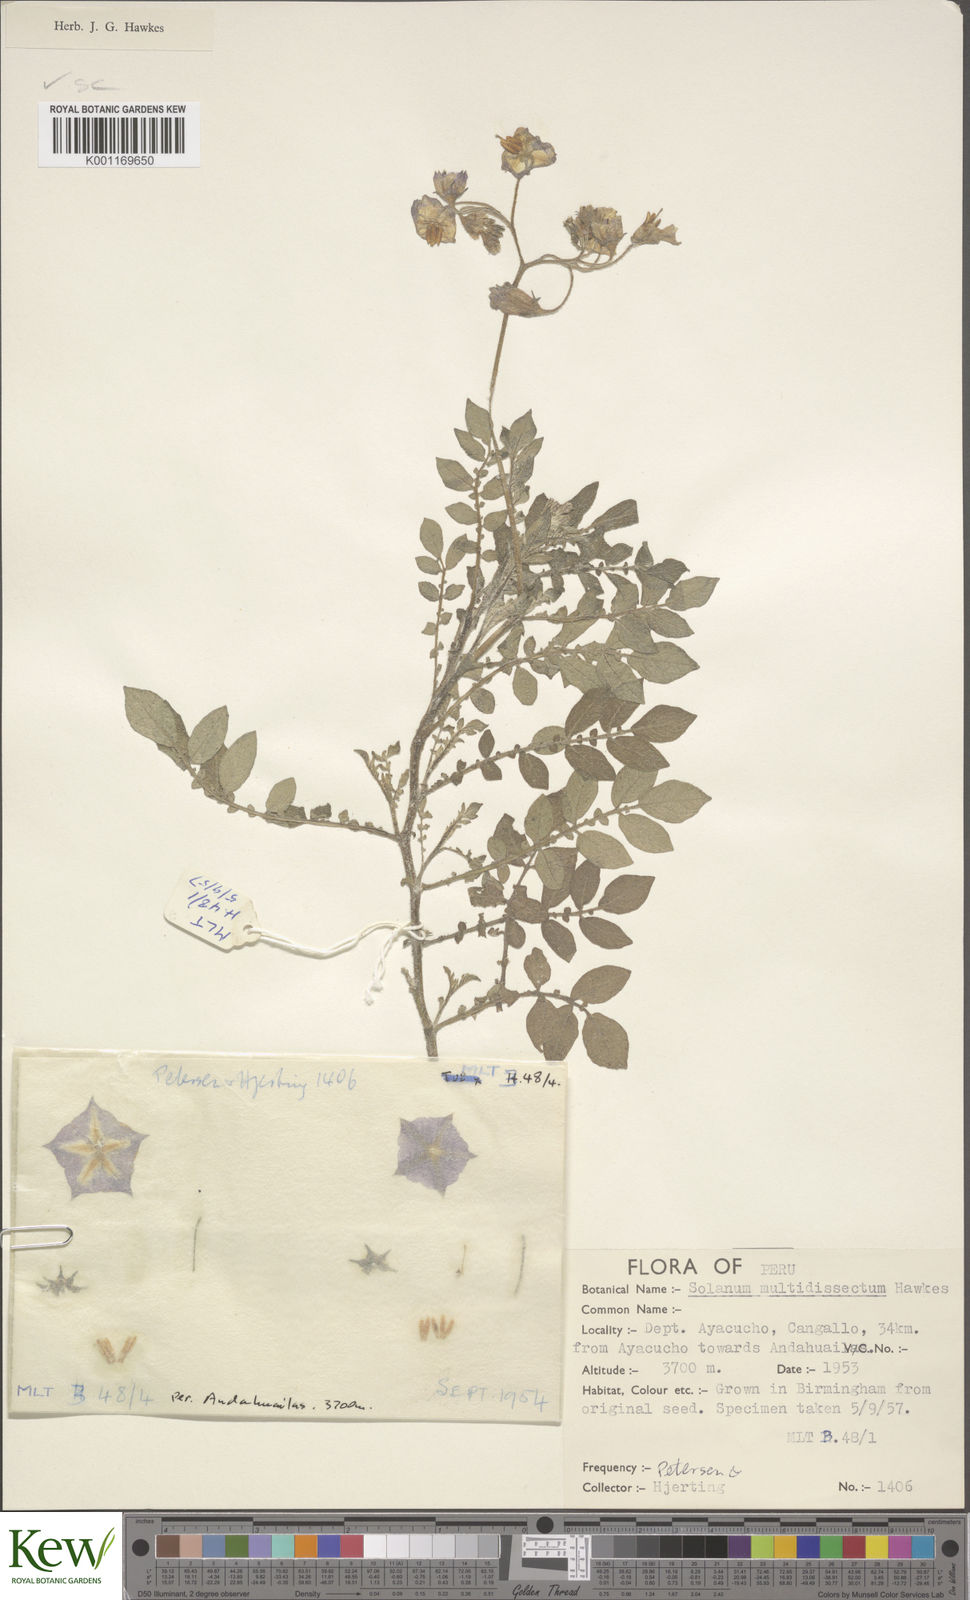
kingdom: Plantae
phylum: Tracheophyta
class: Magnoliopsida
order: Solanales
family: Solanaceae
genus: Solanum
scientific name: Solanum candolleanum
